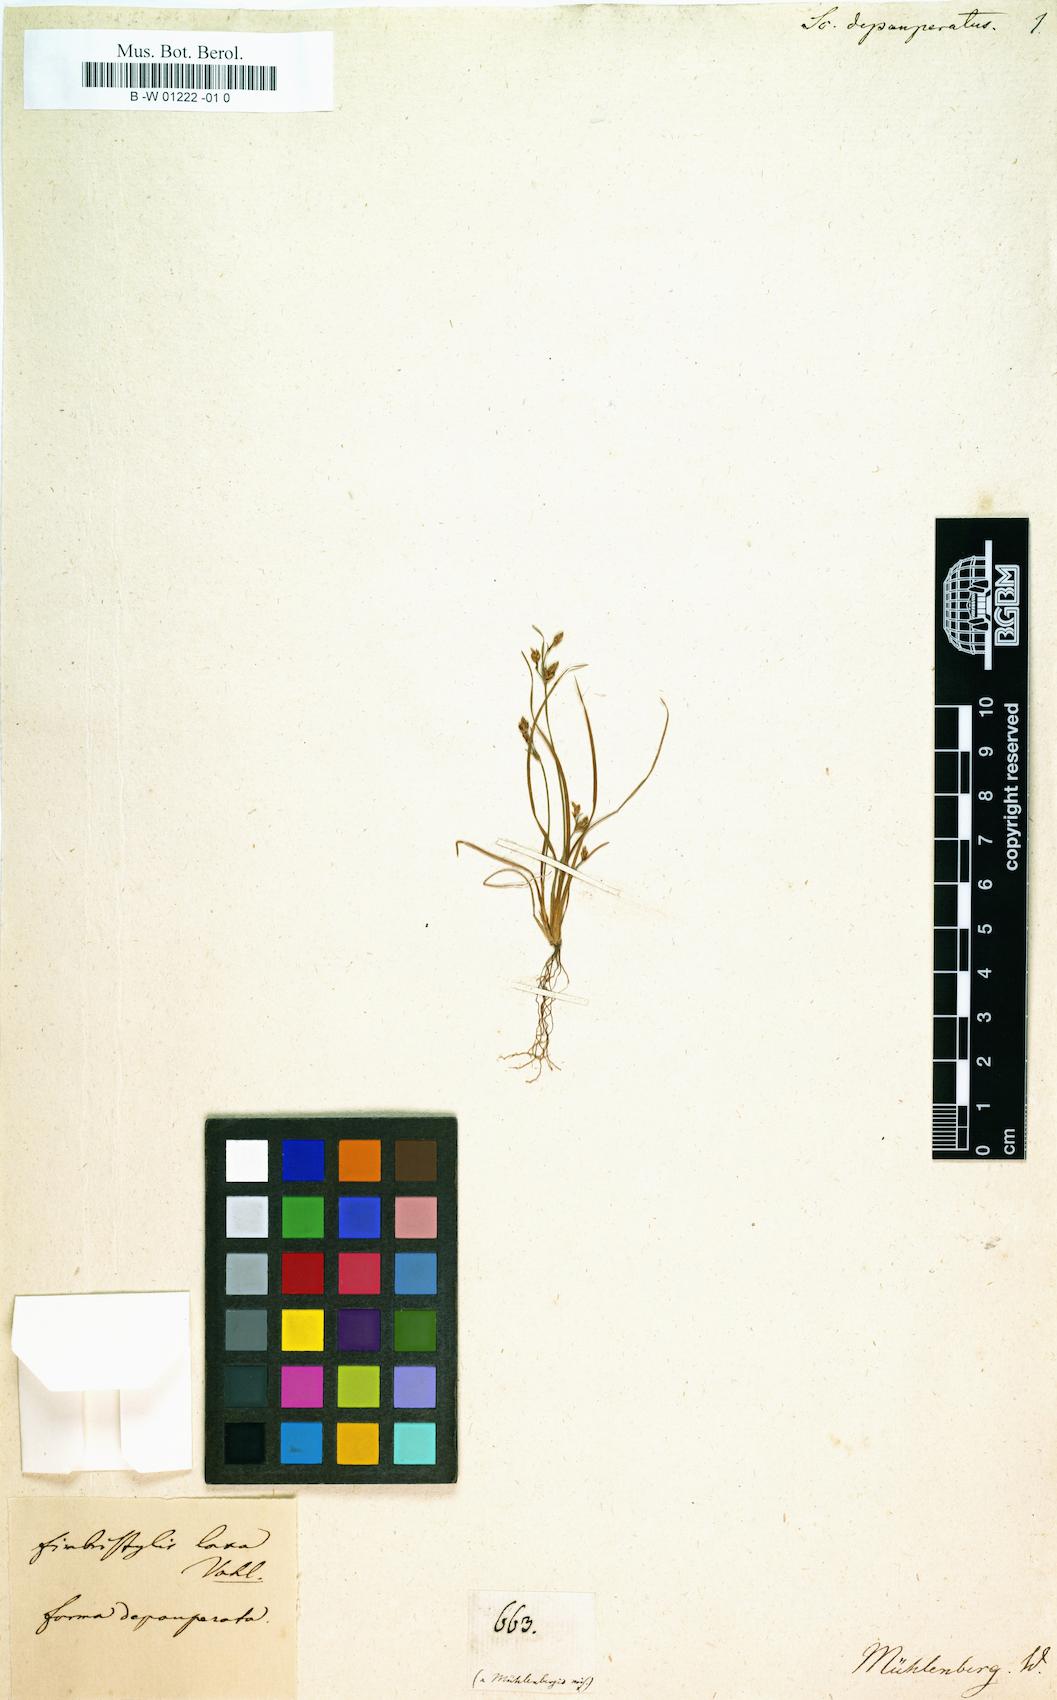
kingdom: Plantae
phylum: Tracheophyta
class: Liliopsida
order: Poales
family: Cyperaceae
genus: Fimbristylis
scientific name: Fimbristylis dichotoma
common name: Forked fimbry
